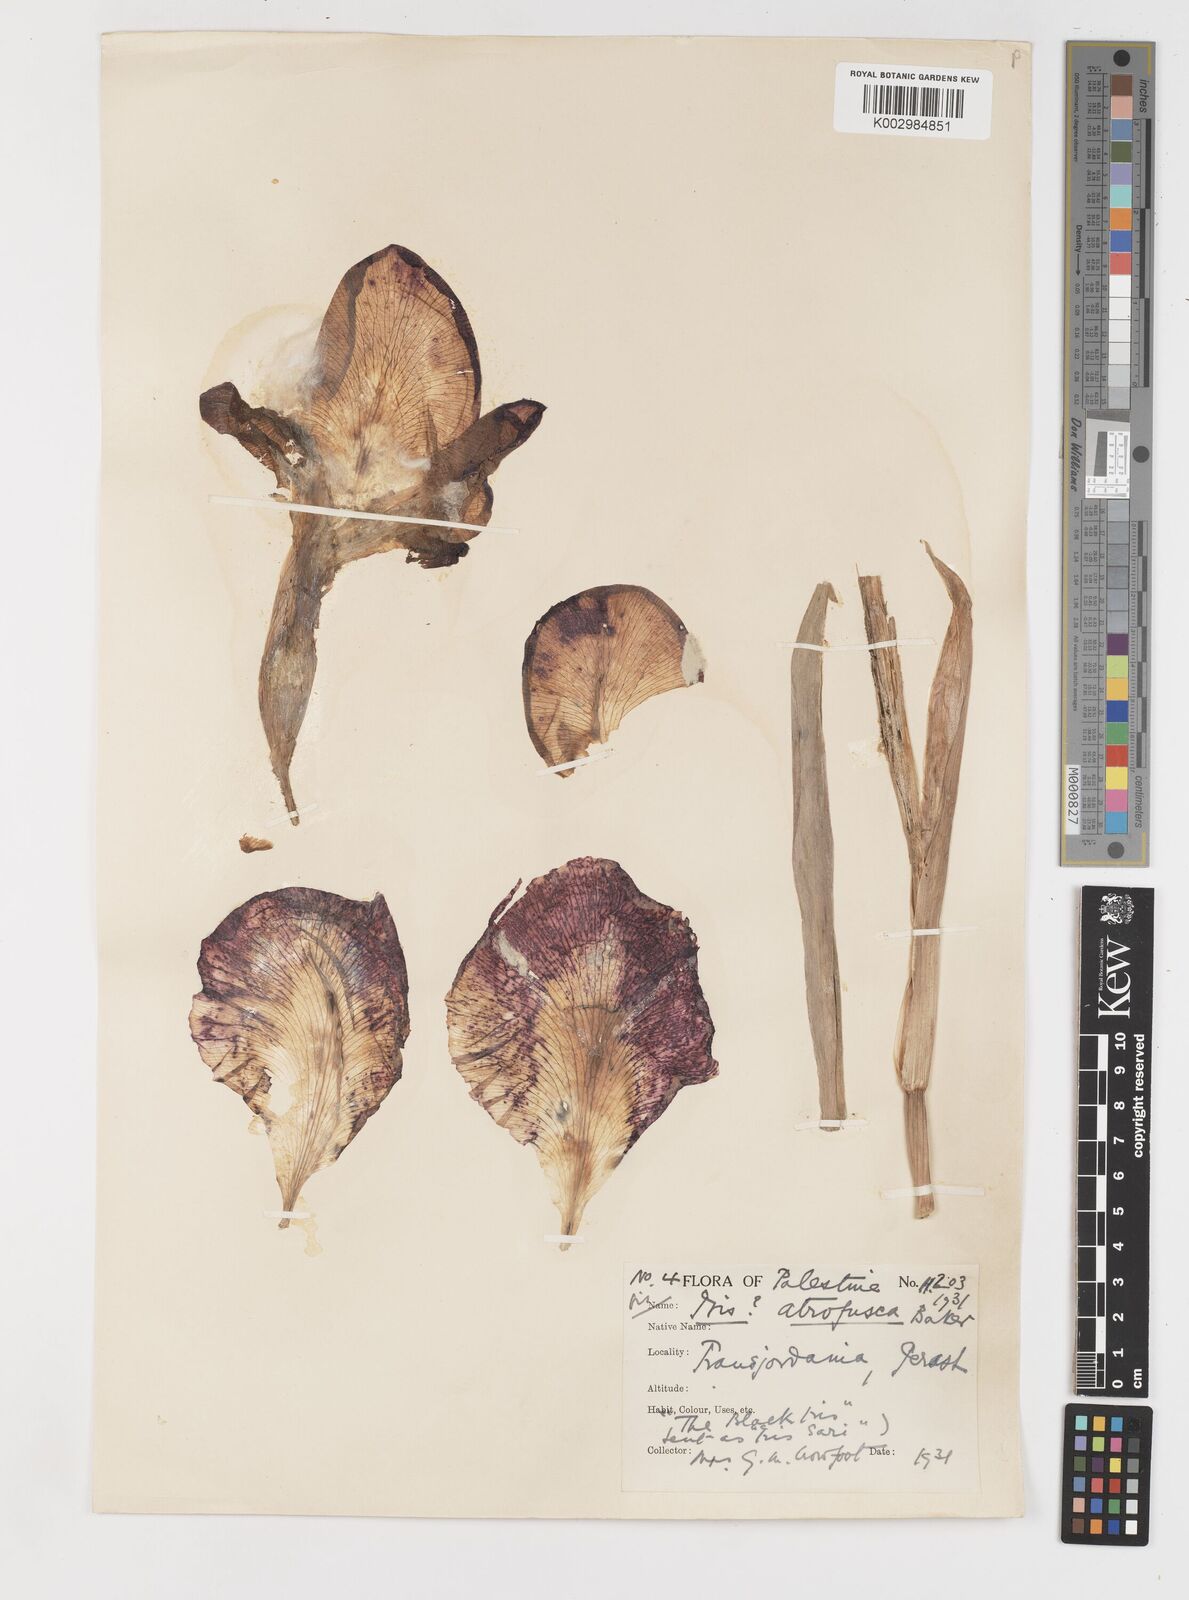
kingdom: Plantae
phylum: Tracheophyta
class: Liliopsida
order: Asparagales
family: Iridaceae
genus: Iris
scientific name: Iris atrofusca
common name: Asshafa iris
